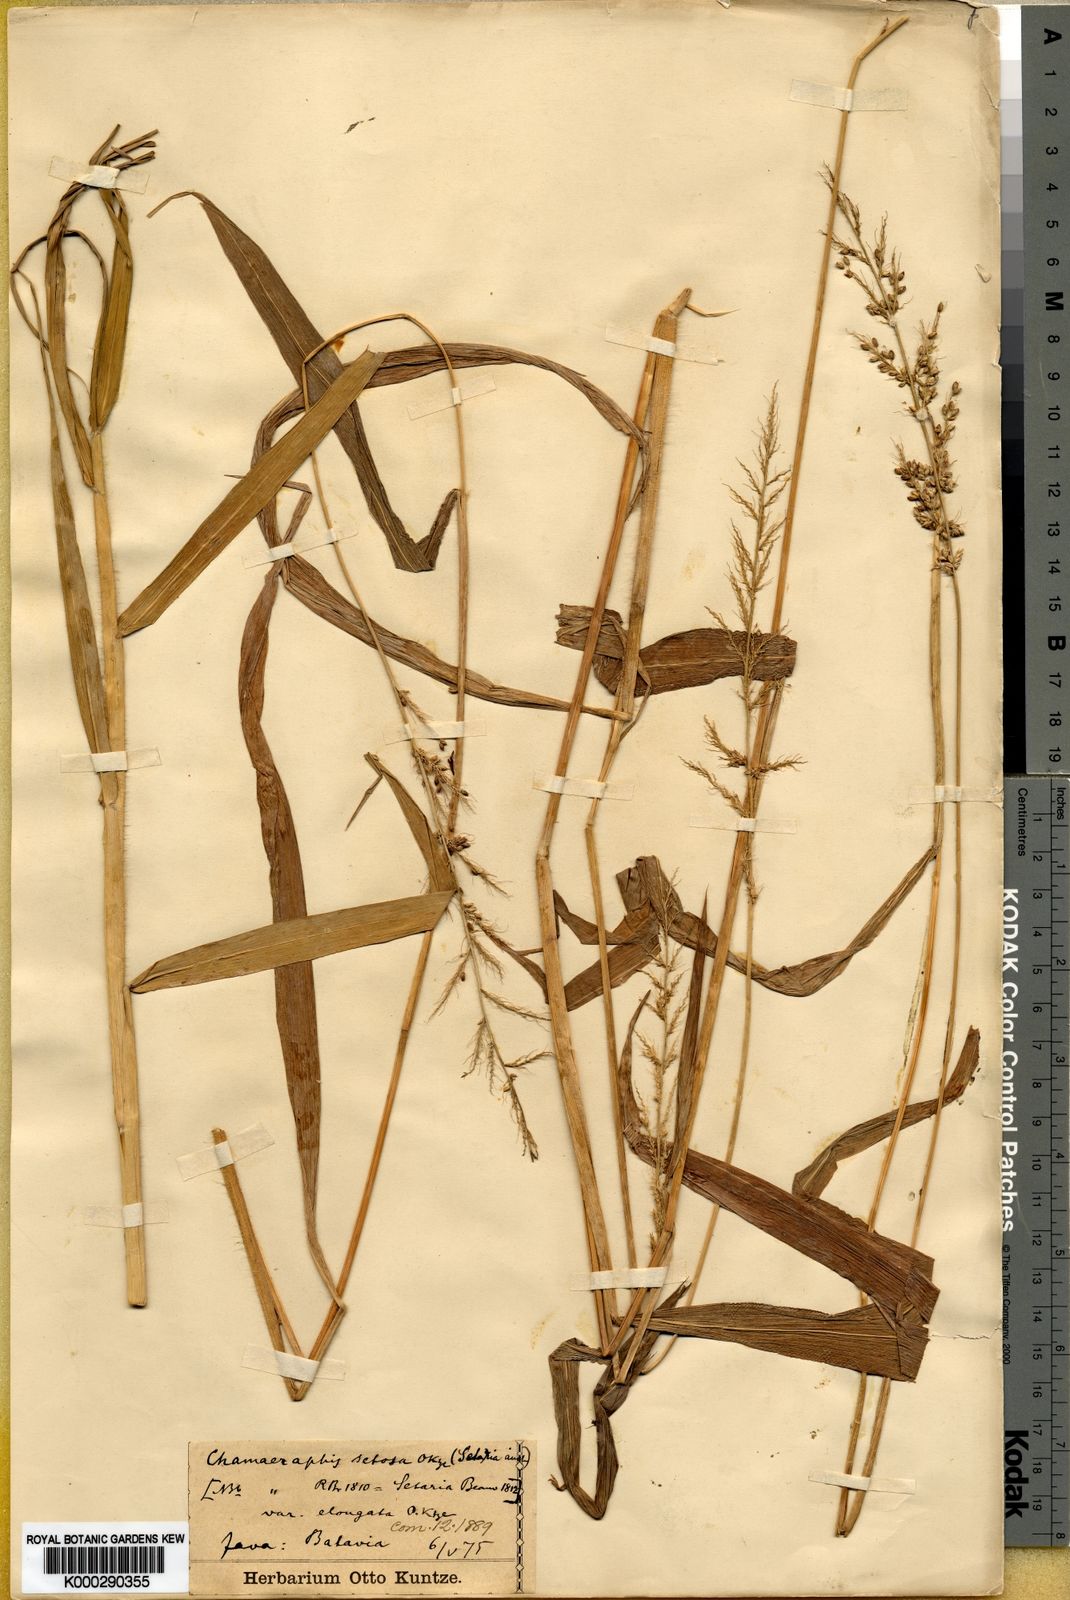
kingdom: Plantae
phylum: Tracheophyta
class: Liliopsida
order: Poales
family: Poaceae
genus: Setaria
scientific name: Setaria barbata
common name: East indian bristlegrass
